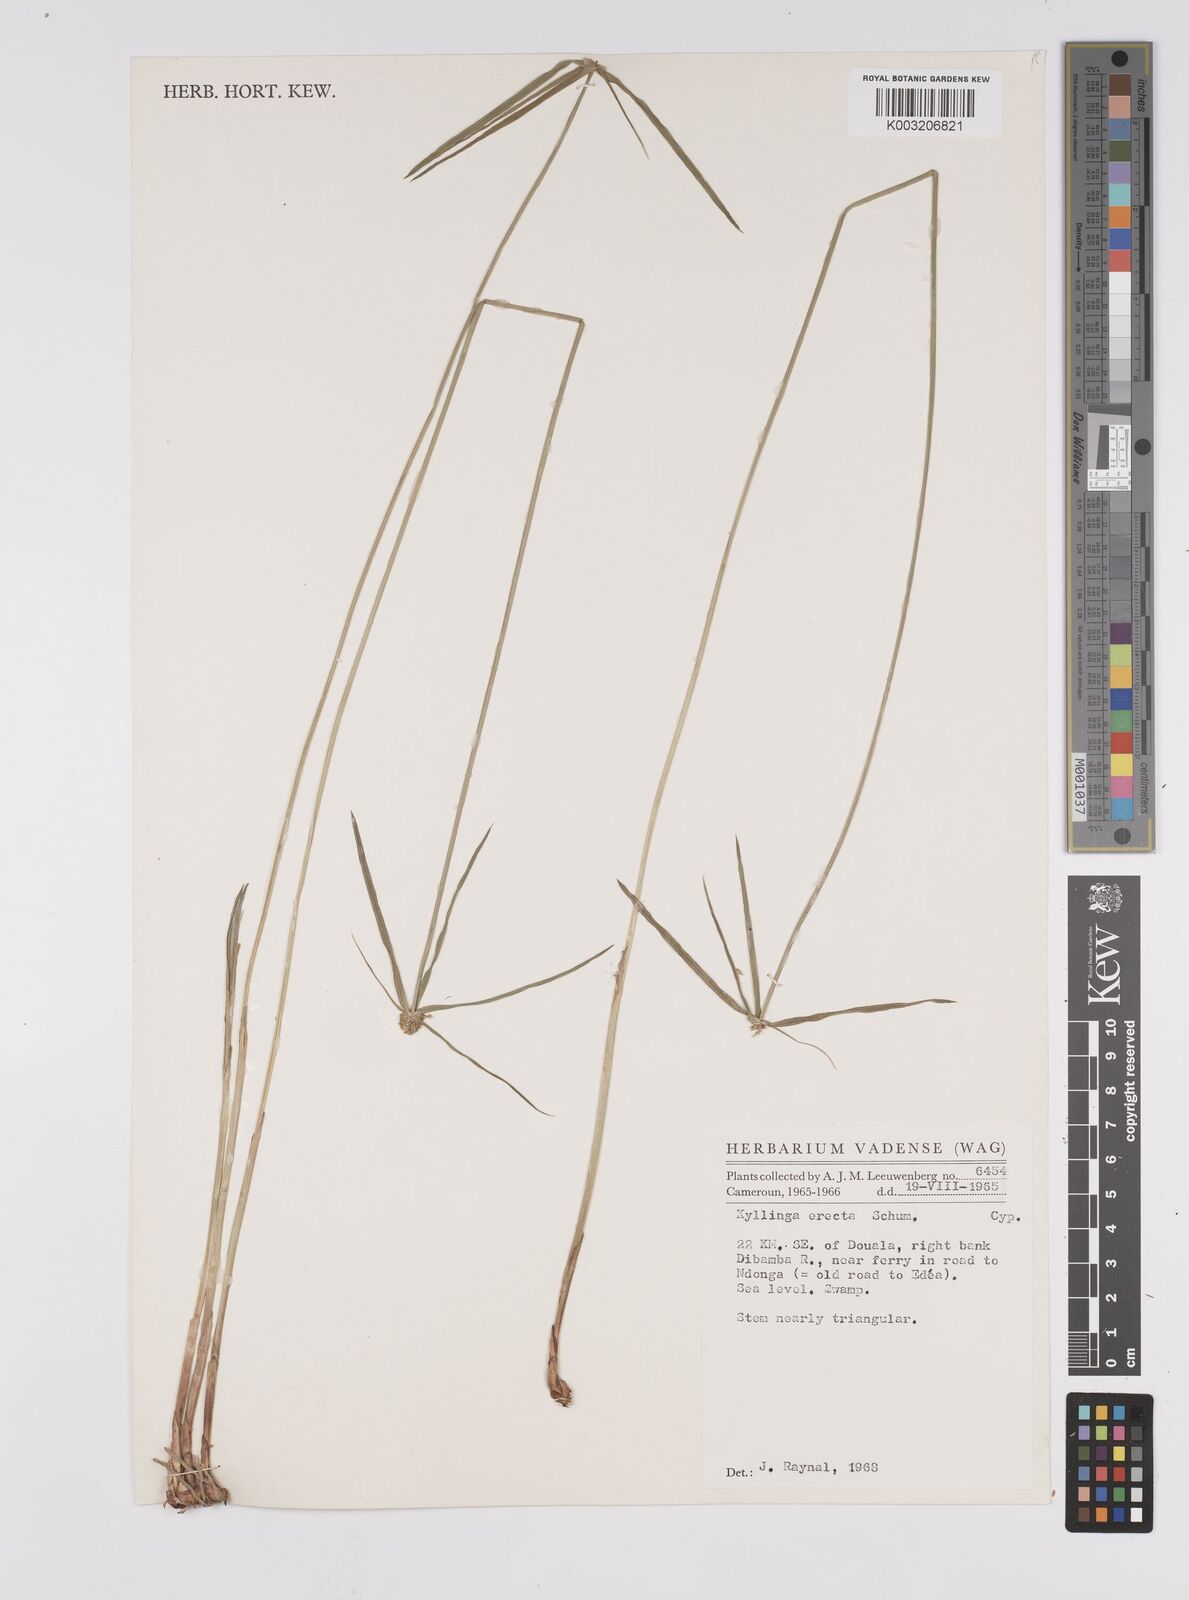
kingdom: Plantae
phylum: Tracheophyta
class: Liliopsida
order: Poales
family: Cyperaceae
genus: Cyperus
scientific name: Cyperus erectus
